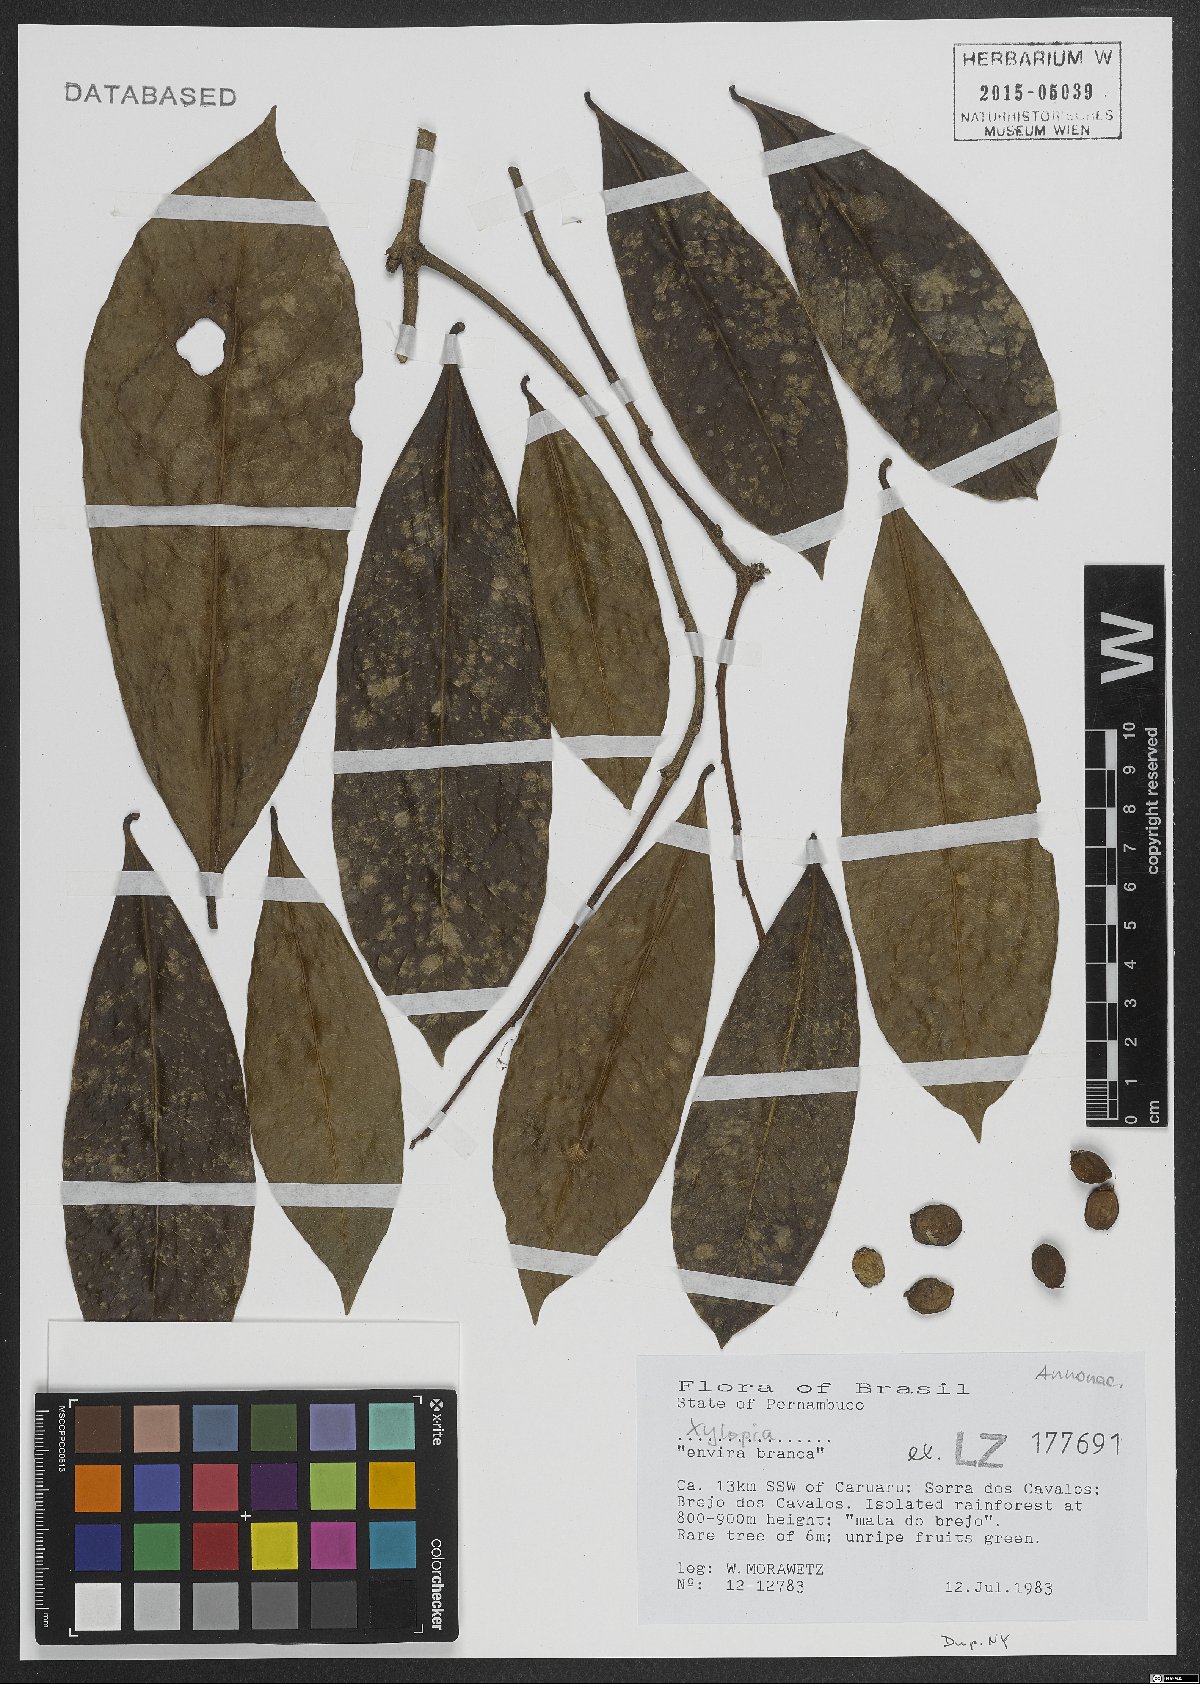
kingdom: Plantae
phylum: Tracheophyta
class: Magnoliopsida
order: Magnoliales
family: Annonaceae
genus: Xylopia
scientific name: Xylopia
